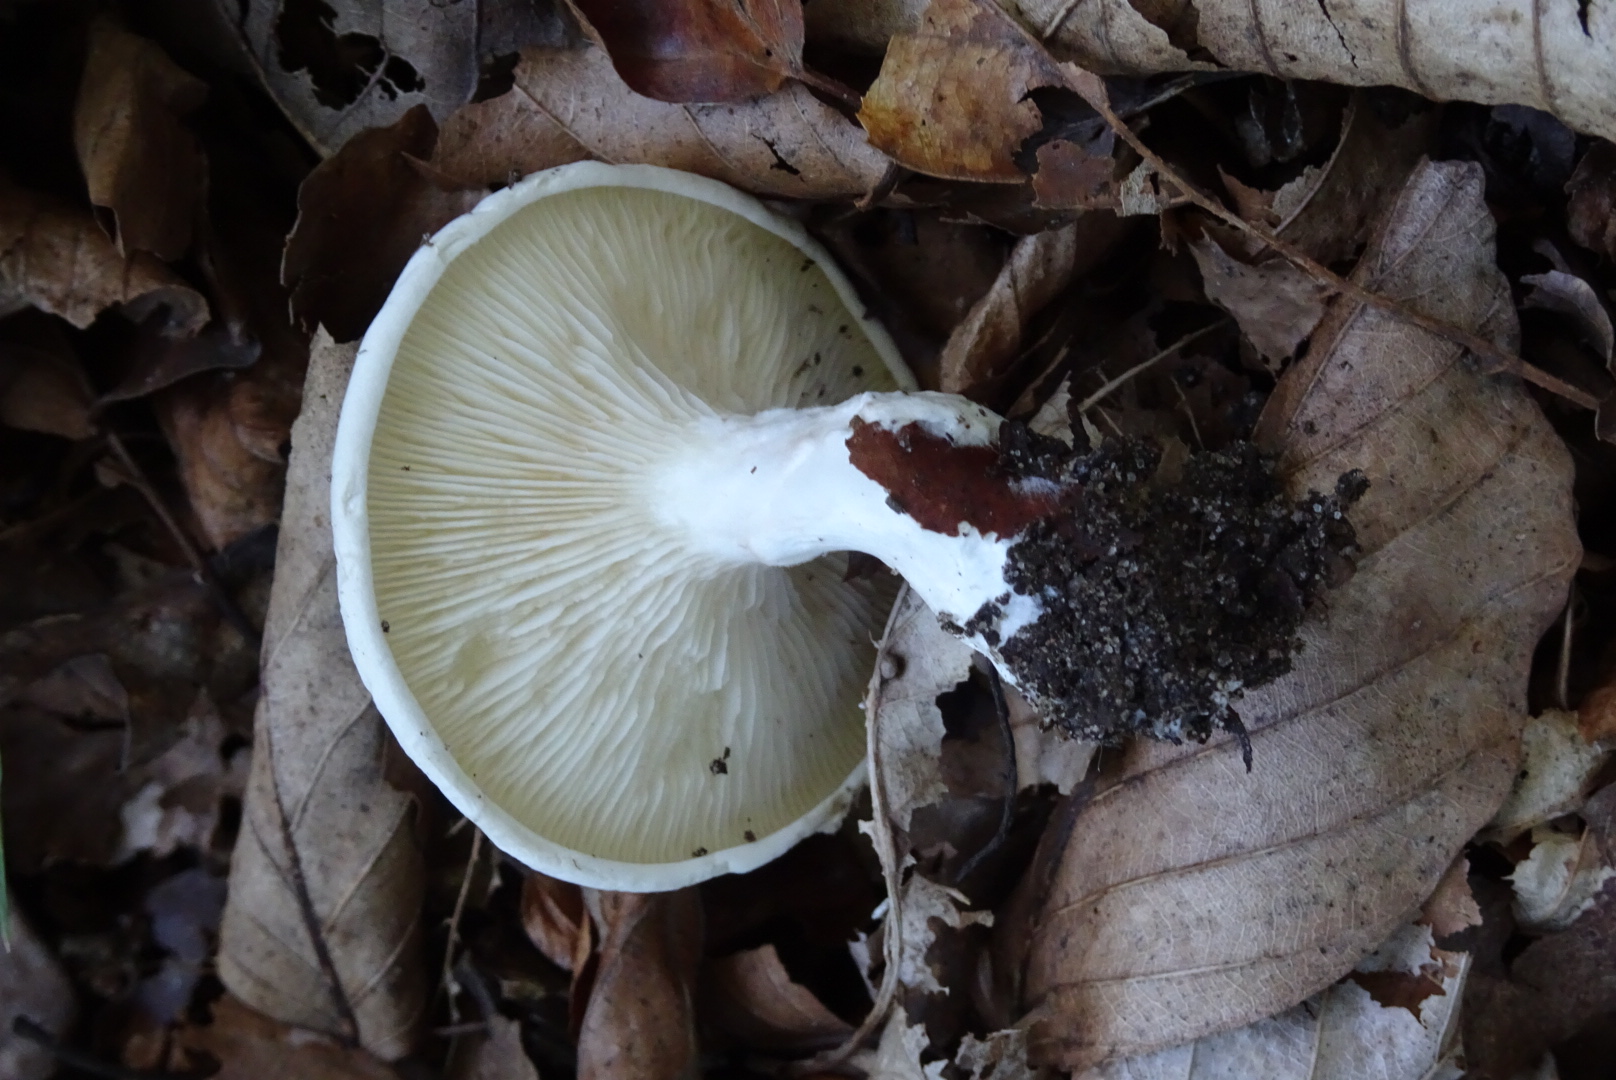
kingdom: Fungi
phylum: Basidiomycota
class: Agaricomycetes
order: Agaricales
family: Entolomataceae
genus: Clitopilus
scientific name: Clitopilus prunulus
